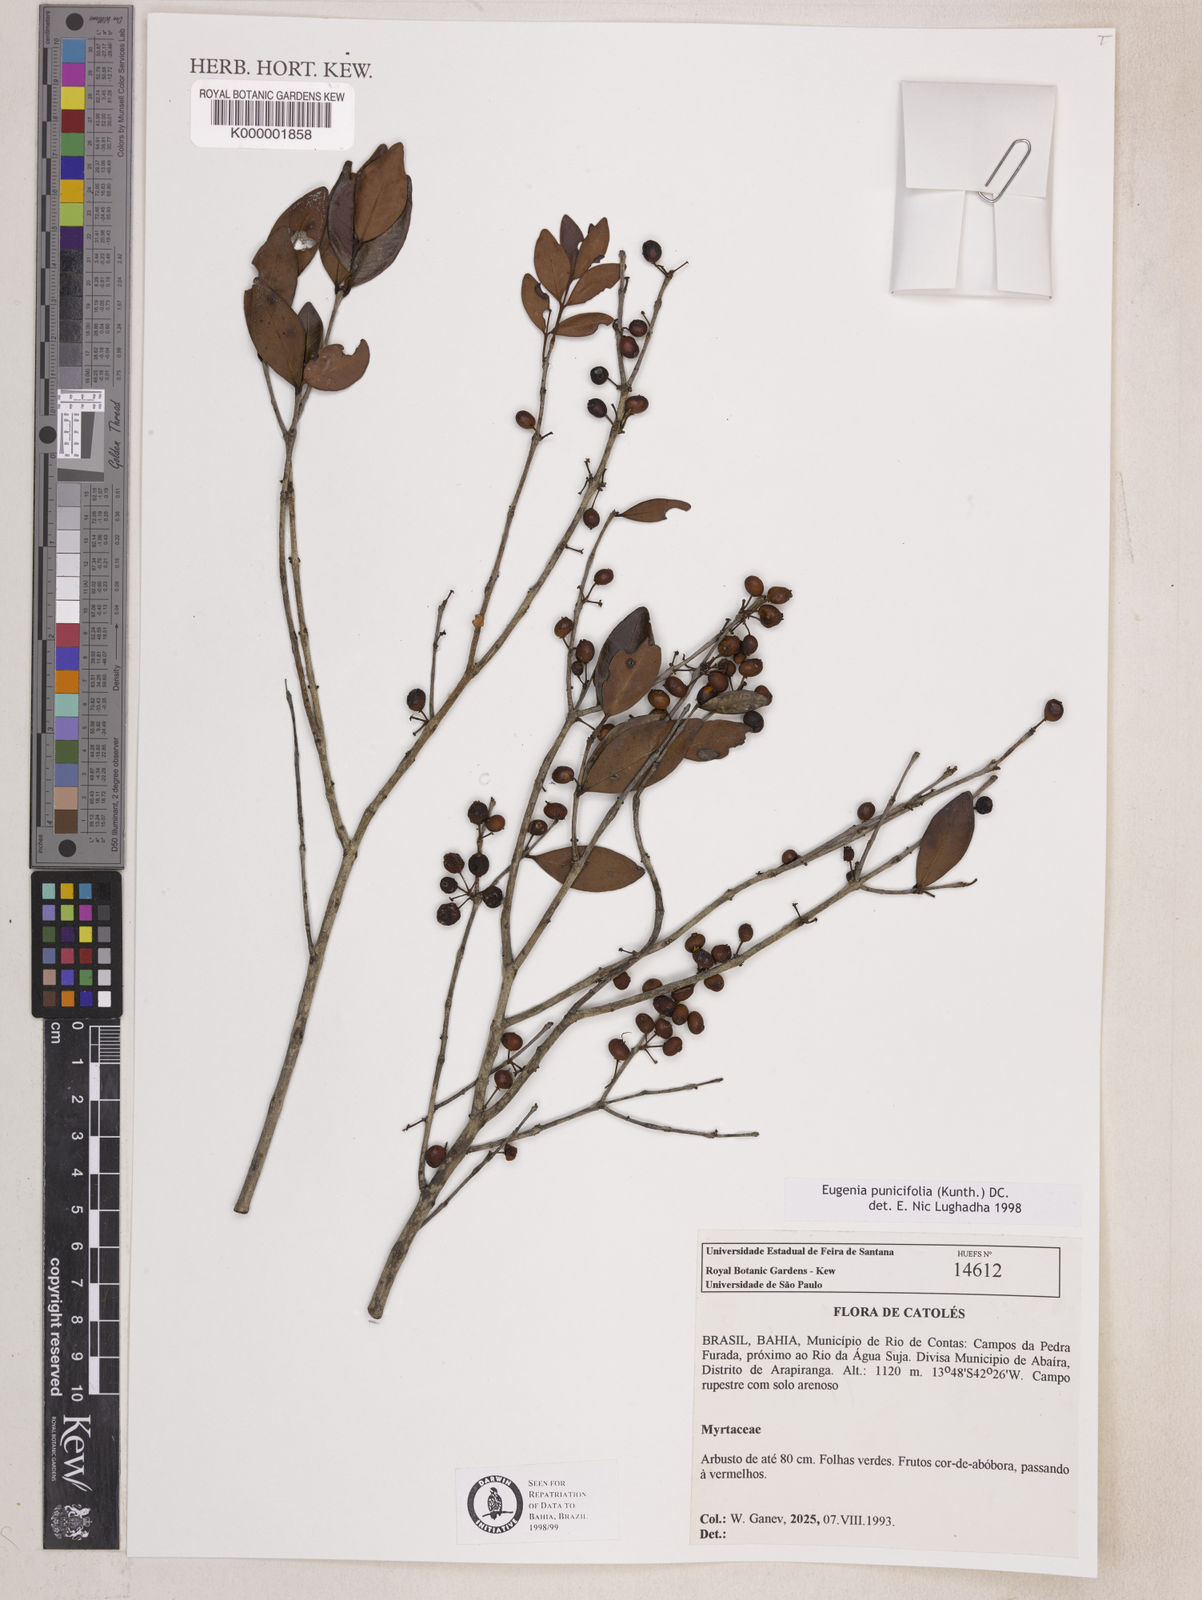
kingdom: Plantae
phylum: Tracheophyta
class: Magnoliopsida
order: Myrtales
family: Myrtaceae
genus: Eugenia
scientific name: Eugenia punicifolia
